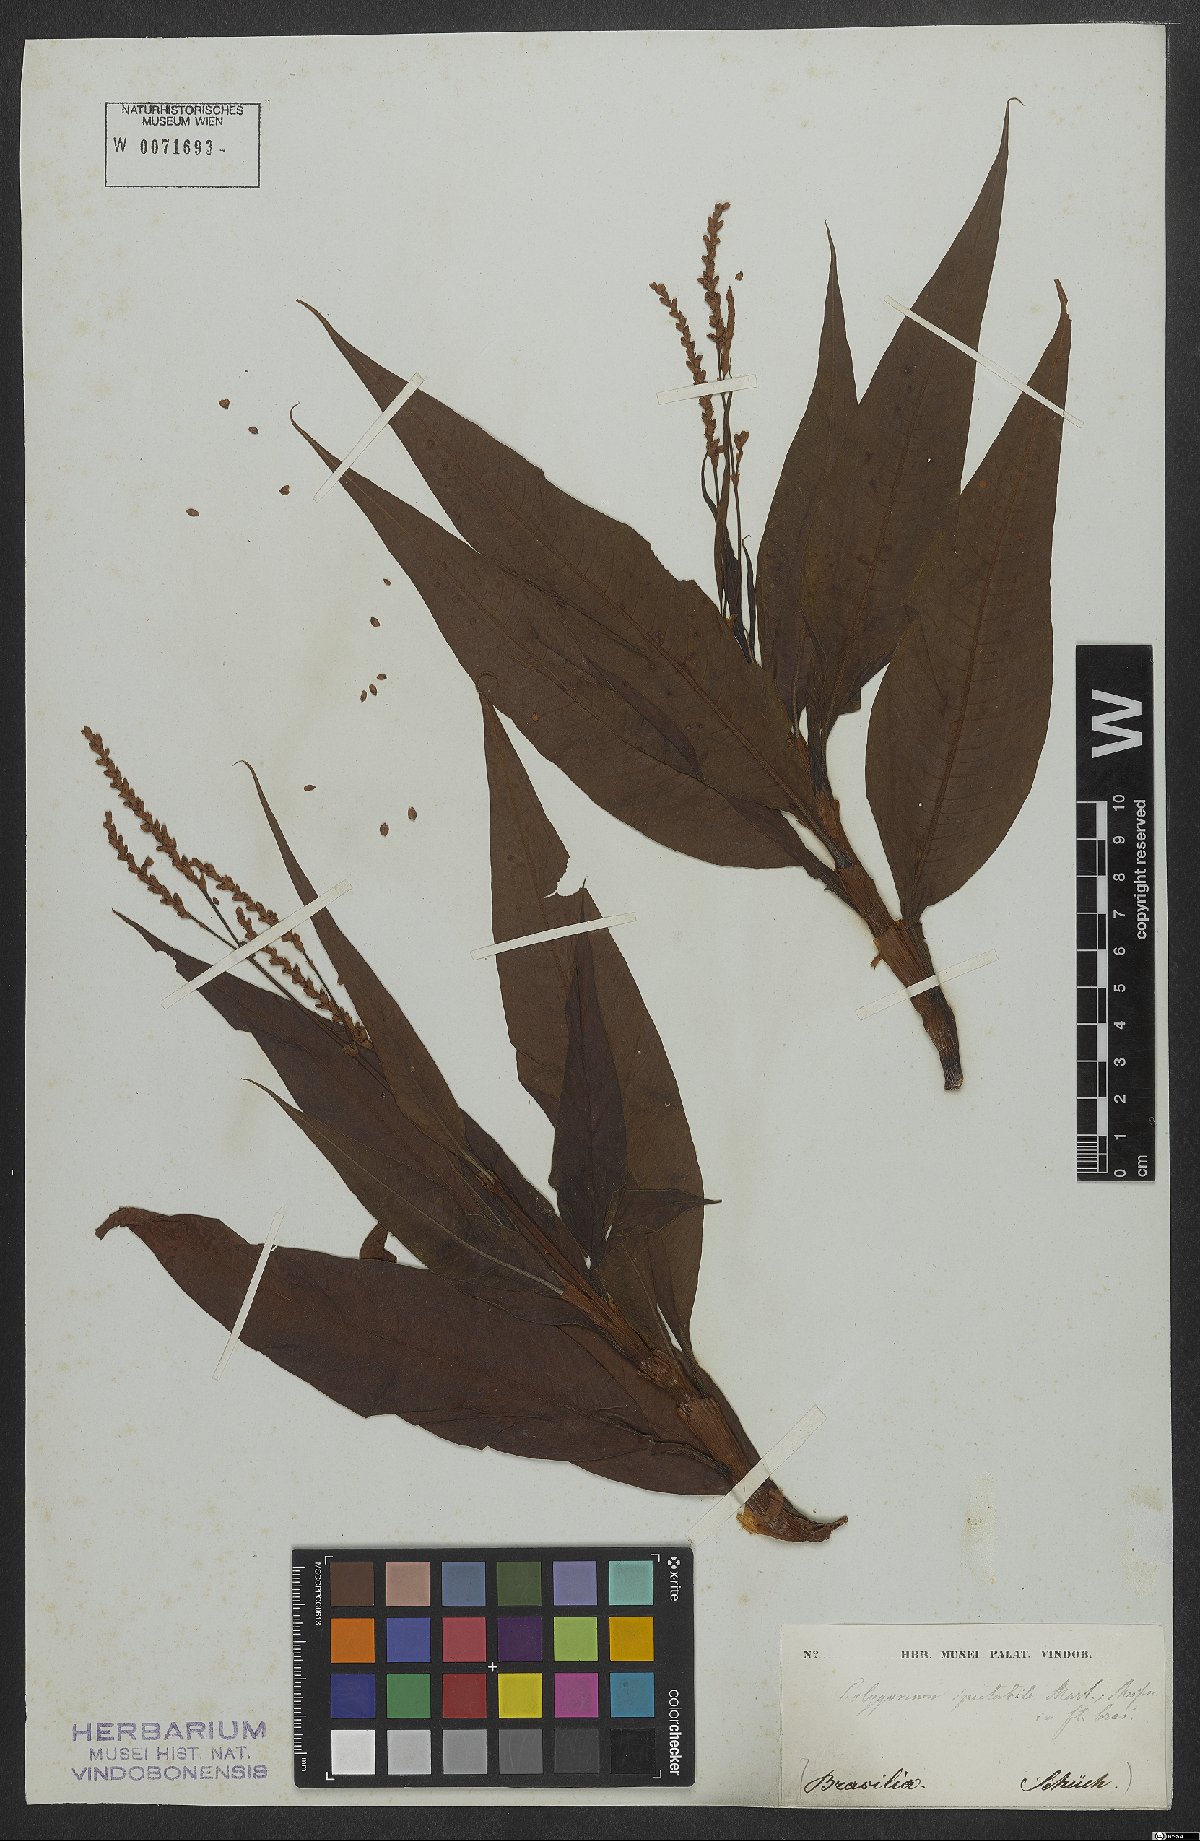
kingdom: Plantae
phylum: Tracheophyta
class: Magnoliopsida
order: Caryophyllales
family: Polygonaceae
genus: Persicaria
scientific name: Persicaria ferruginea
